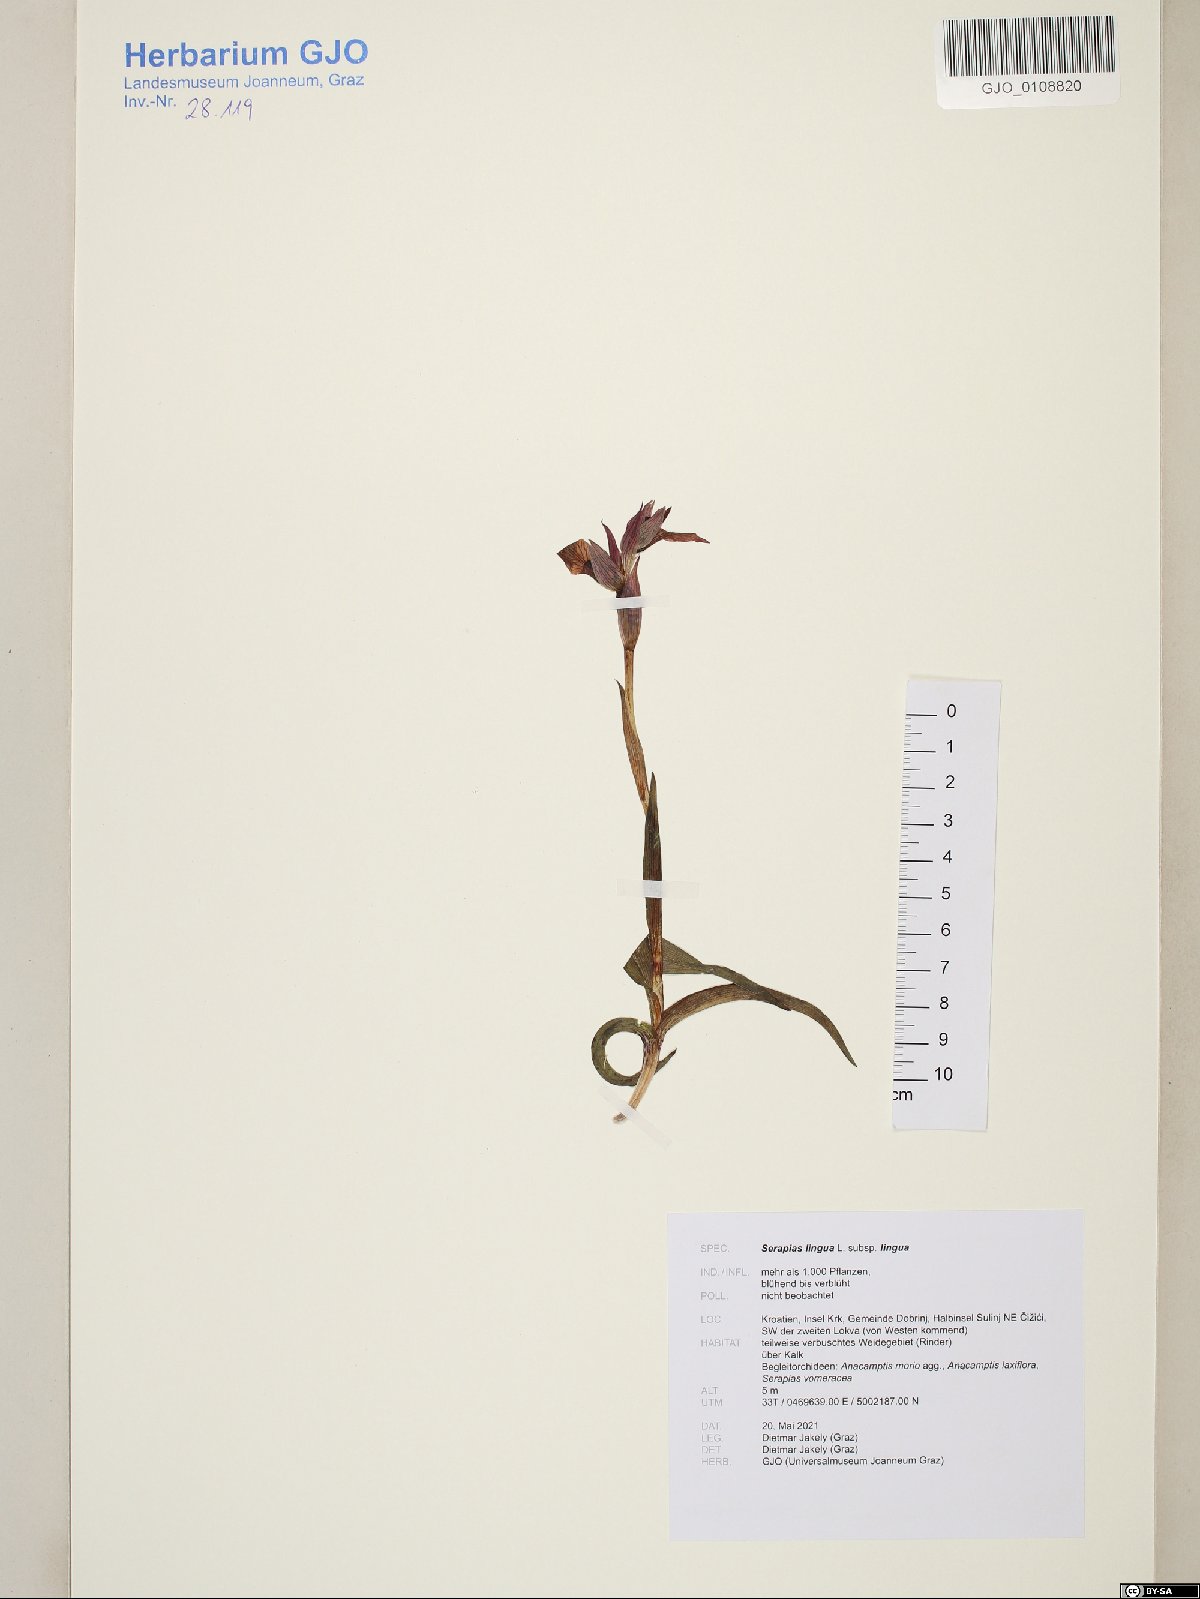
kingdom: Plantae
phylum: Tracheophyta
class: Liliopsida
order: Asparagales
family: Orchidaceae
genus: Serapias
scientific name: Serapias lingua
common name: Tongue-orchid
